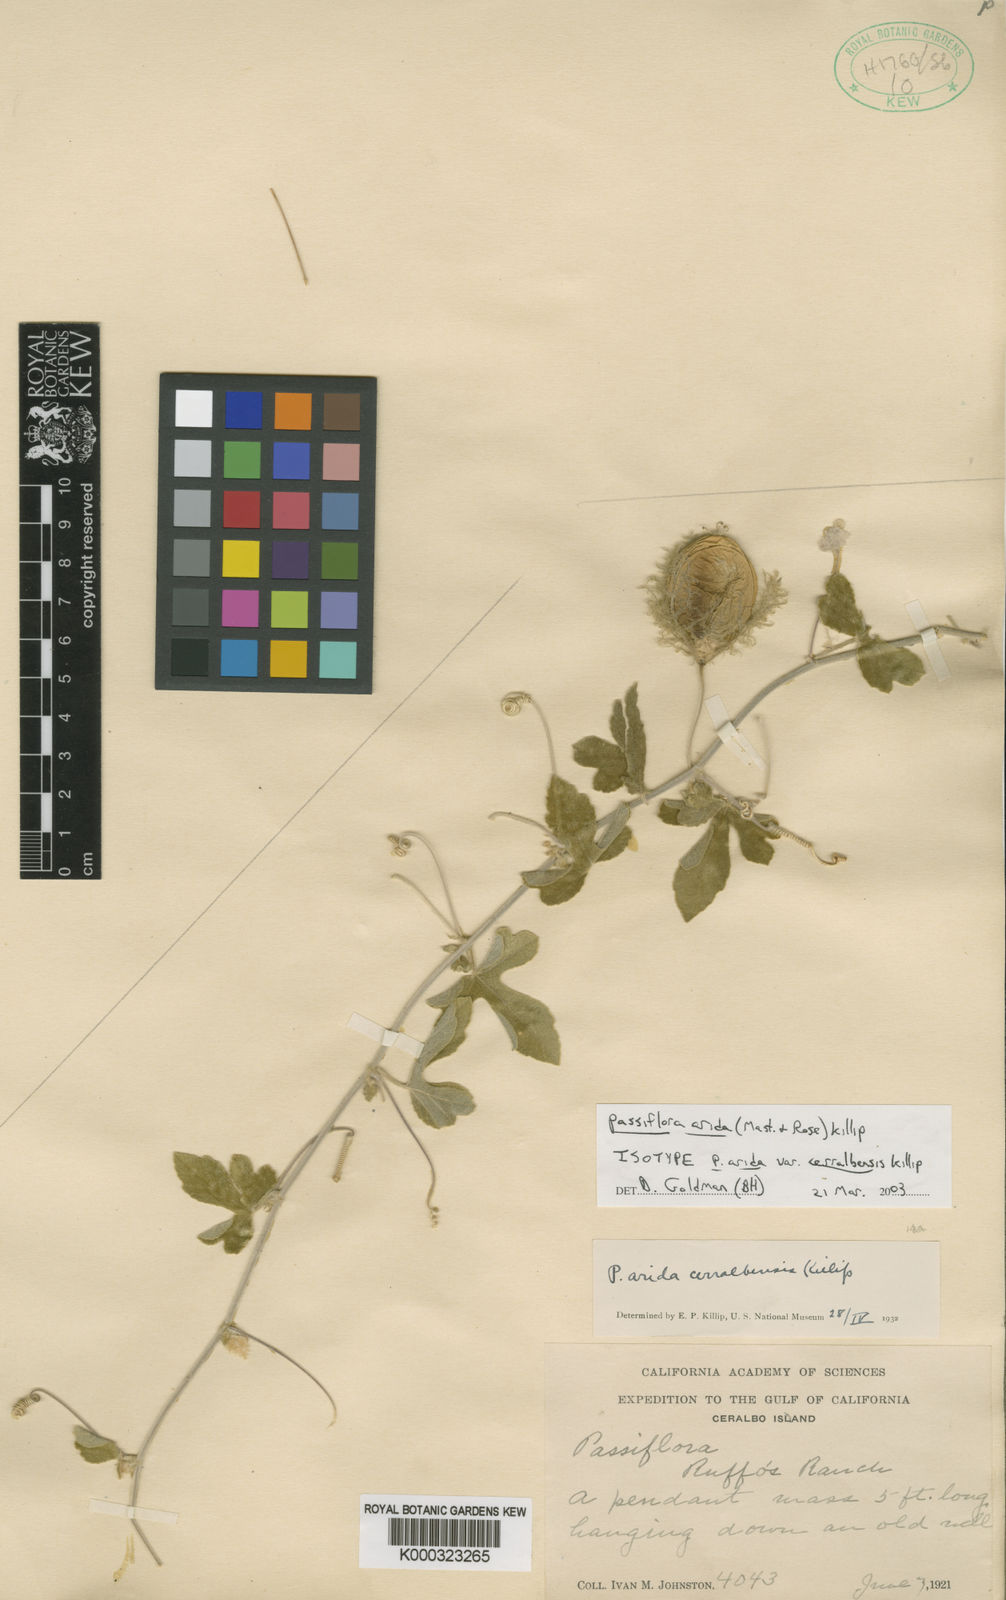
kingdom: Plantae
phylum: Tracheophyta
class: Magnoliopsida
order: Malpighiales
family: Passifloraceae
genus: Passiflora
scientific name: Passiflora arida
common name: Desert passionflower
